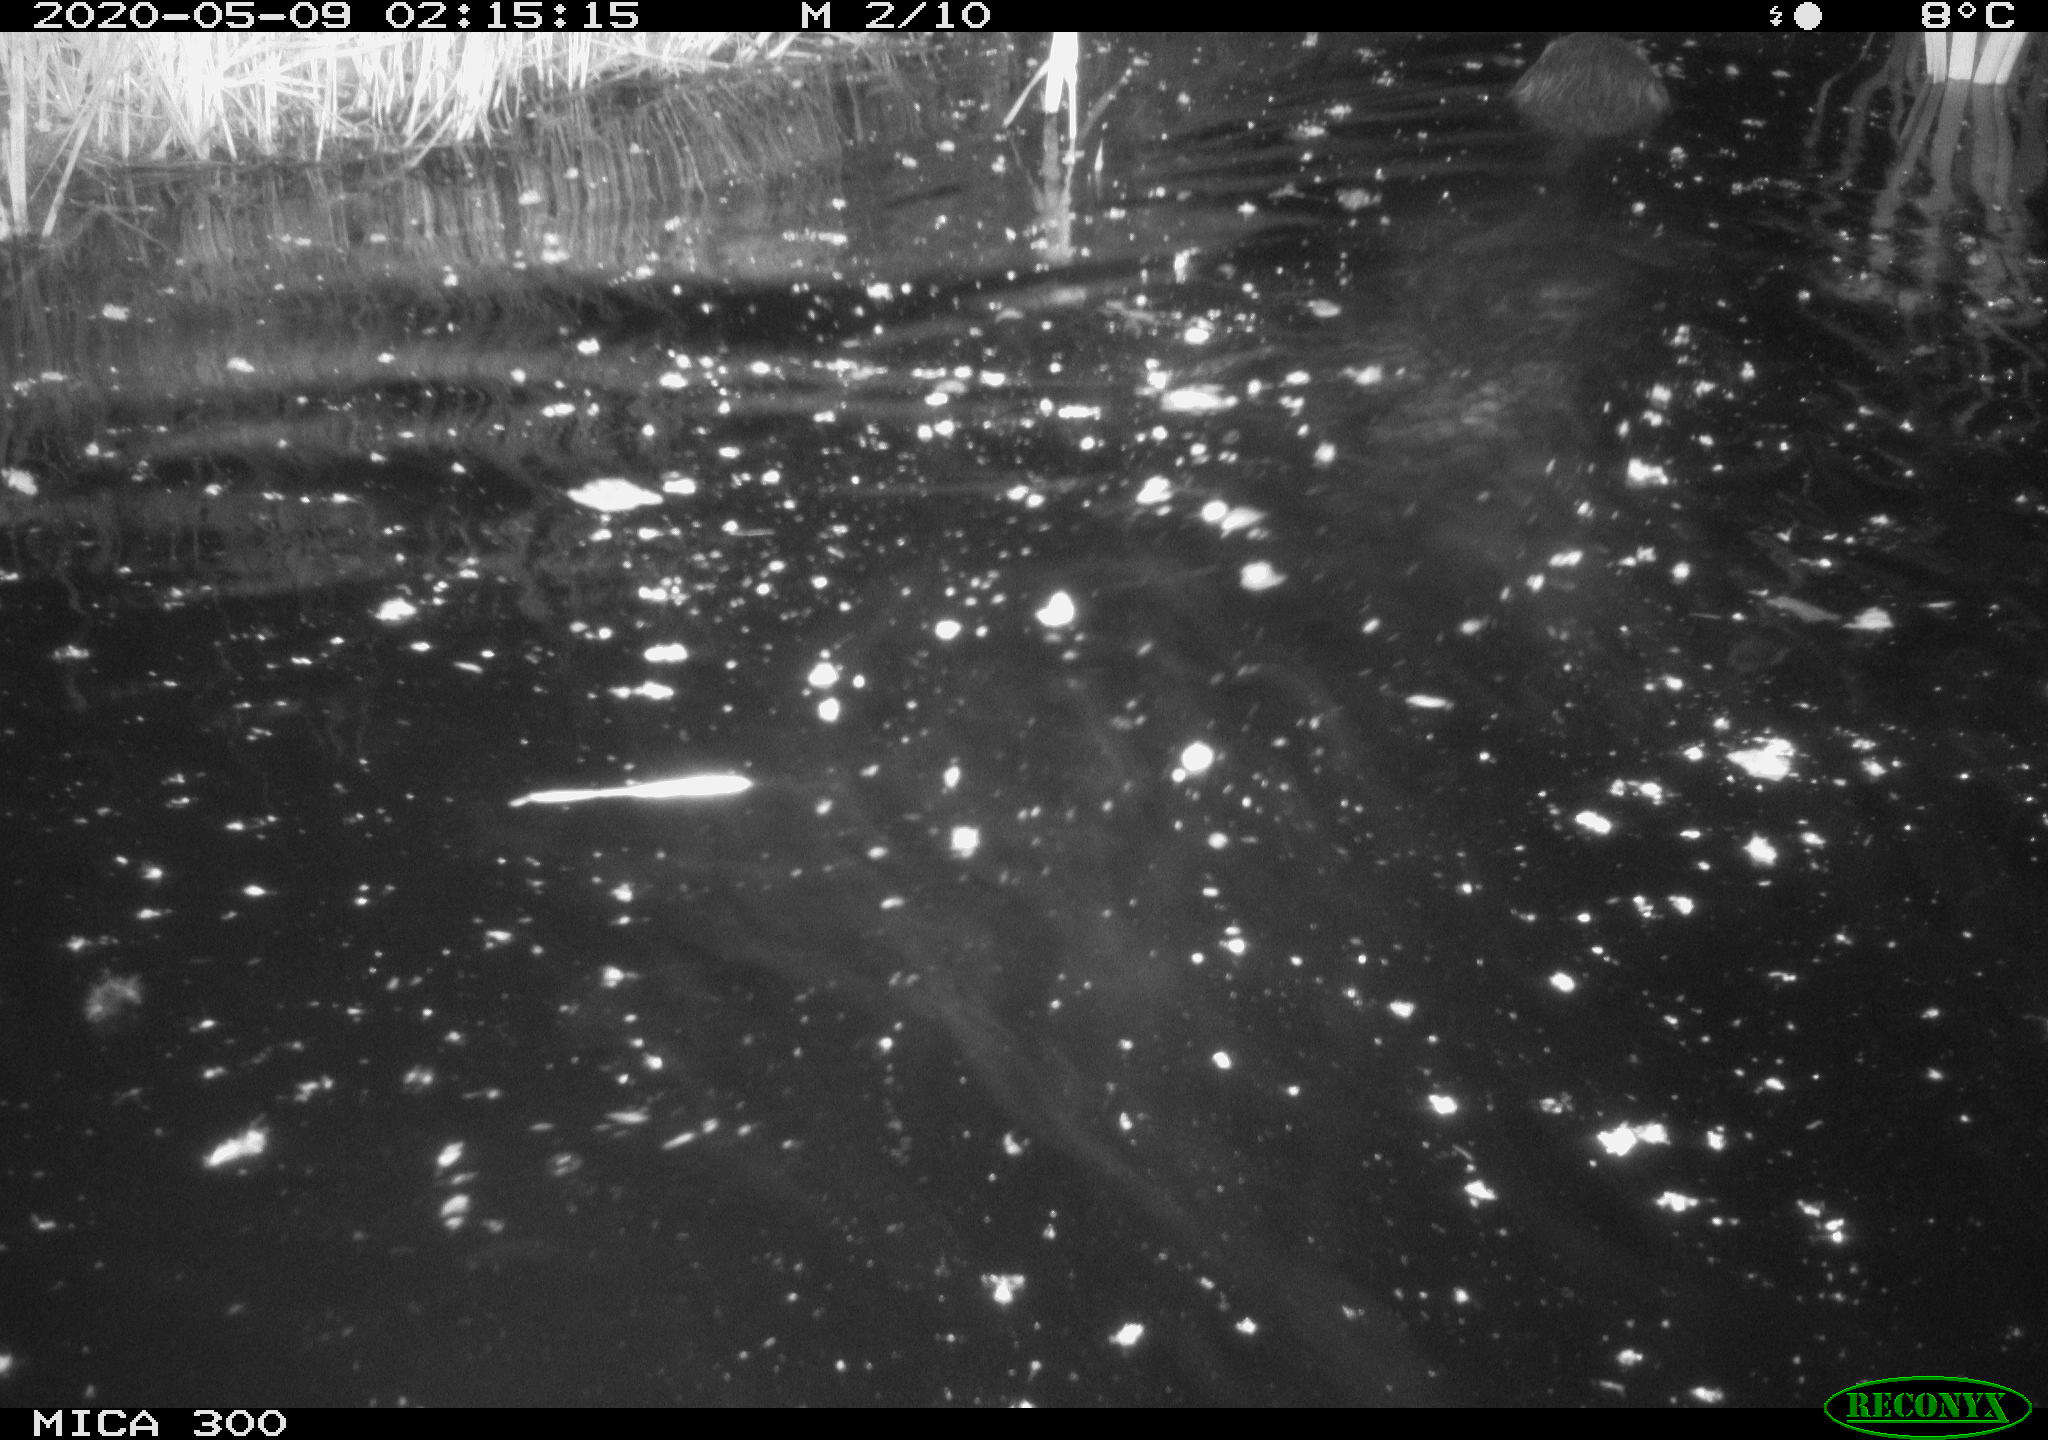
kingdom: Animalia
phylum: Chordata
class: Mammalia
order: Rodentia
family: Castoridae
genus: Castor
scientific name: Castor fiber
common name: Eurasian beaver
